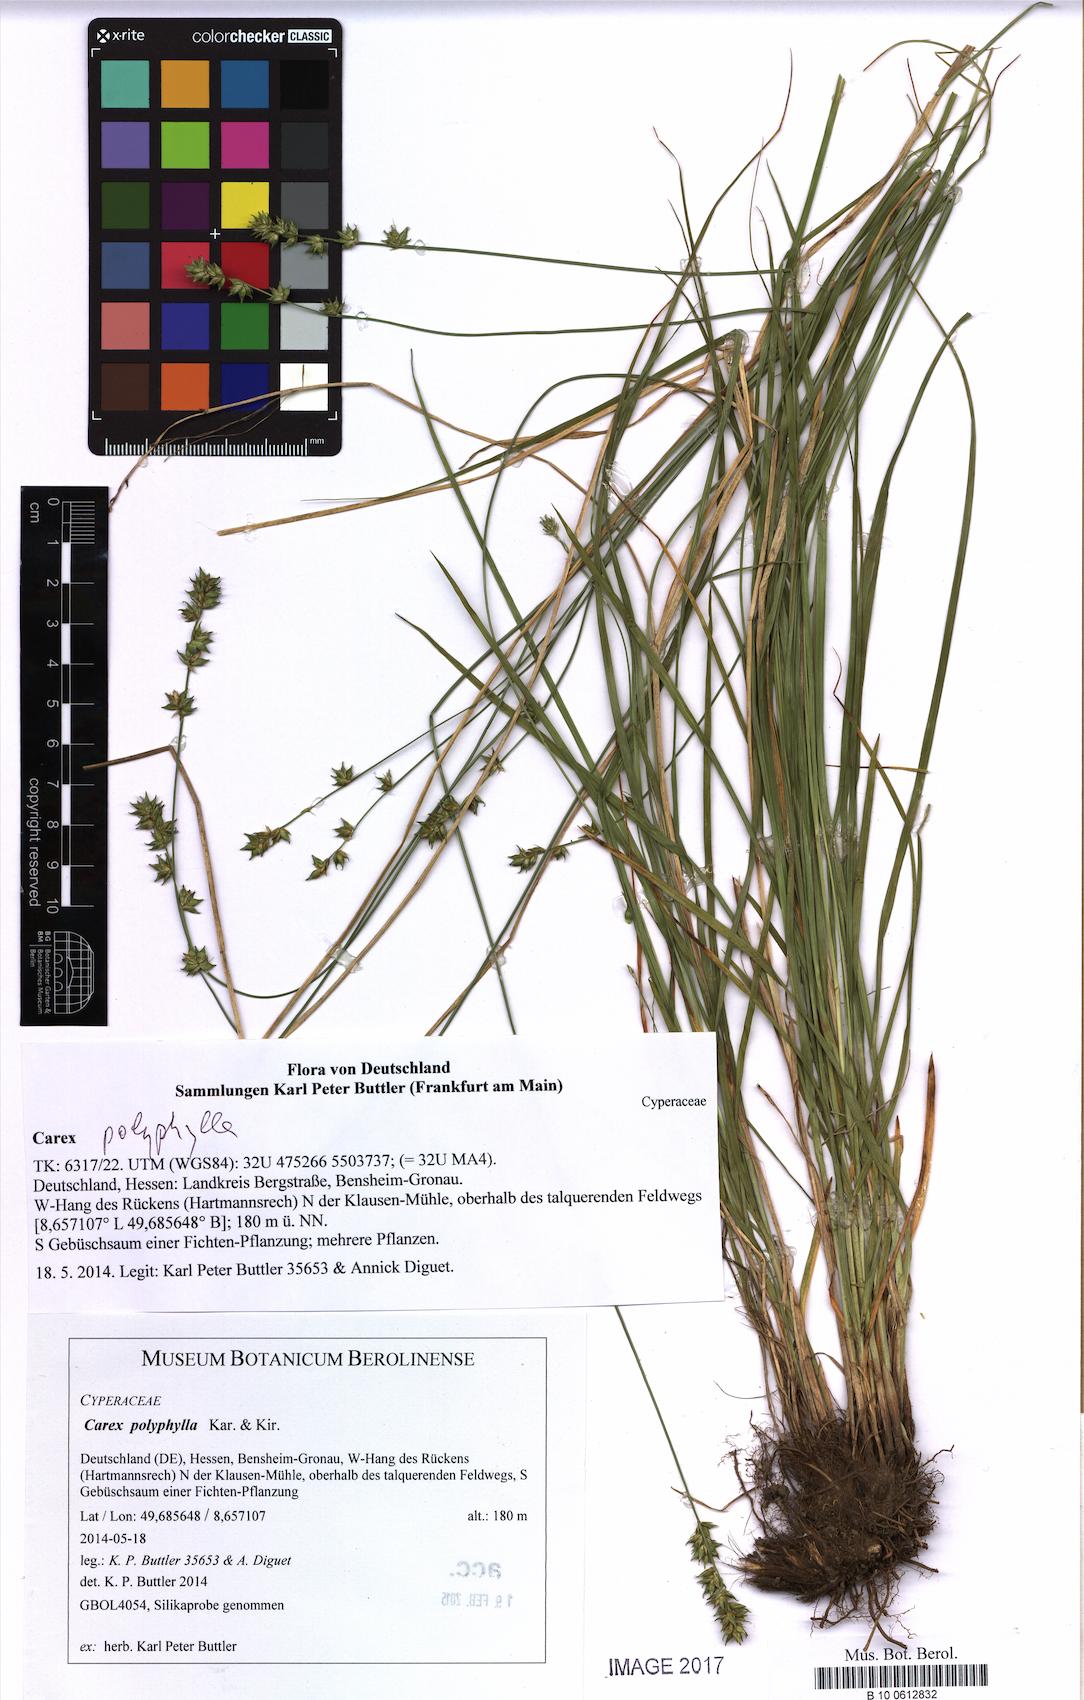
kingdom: Plantae
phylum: Tracheophyta
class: Liliopsida
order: Poales
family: Cyperaceae
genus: Carex
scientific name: Carex divulsa
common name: Grassland sedge
